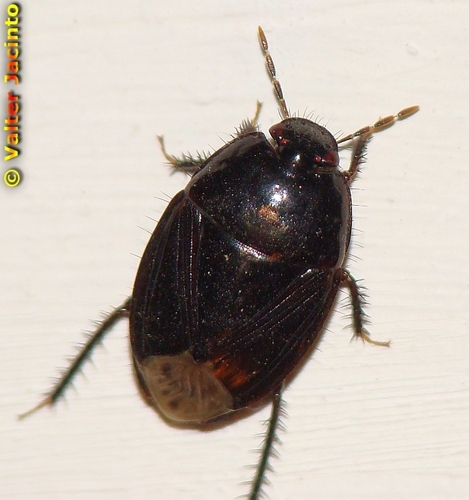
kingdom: Animalia
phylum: Arthropoda
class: Insecta
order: Hemiptera
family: Cydnidae
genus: Macroscytus
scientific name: Macroscytus brunneus
